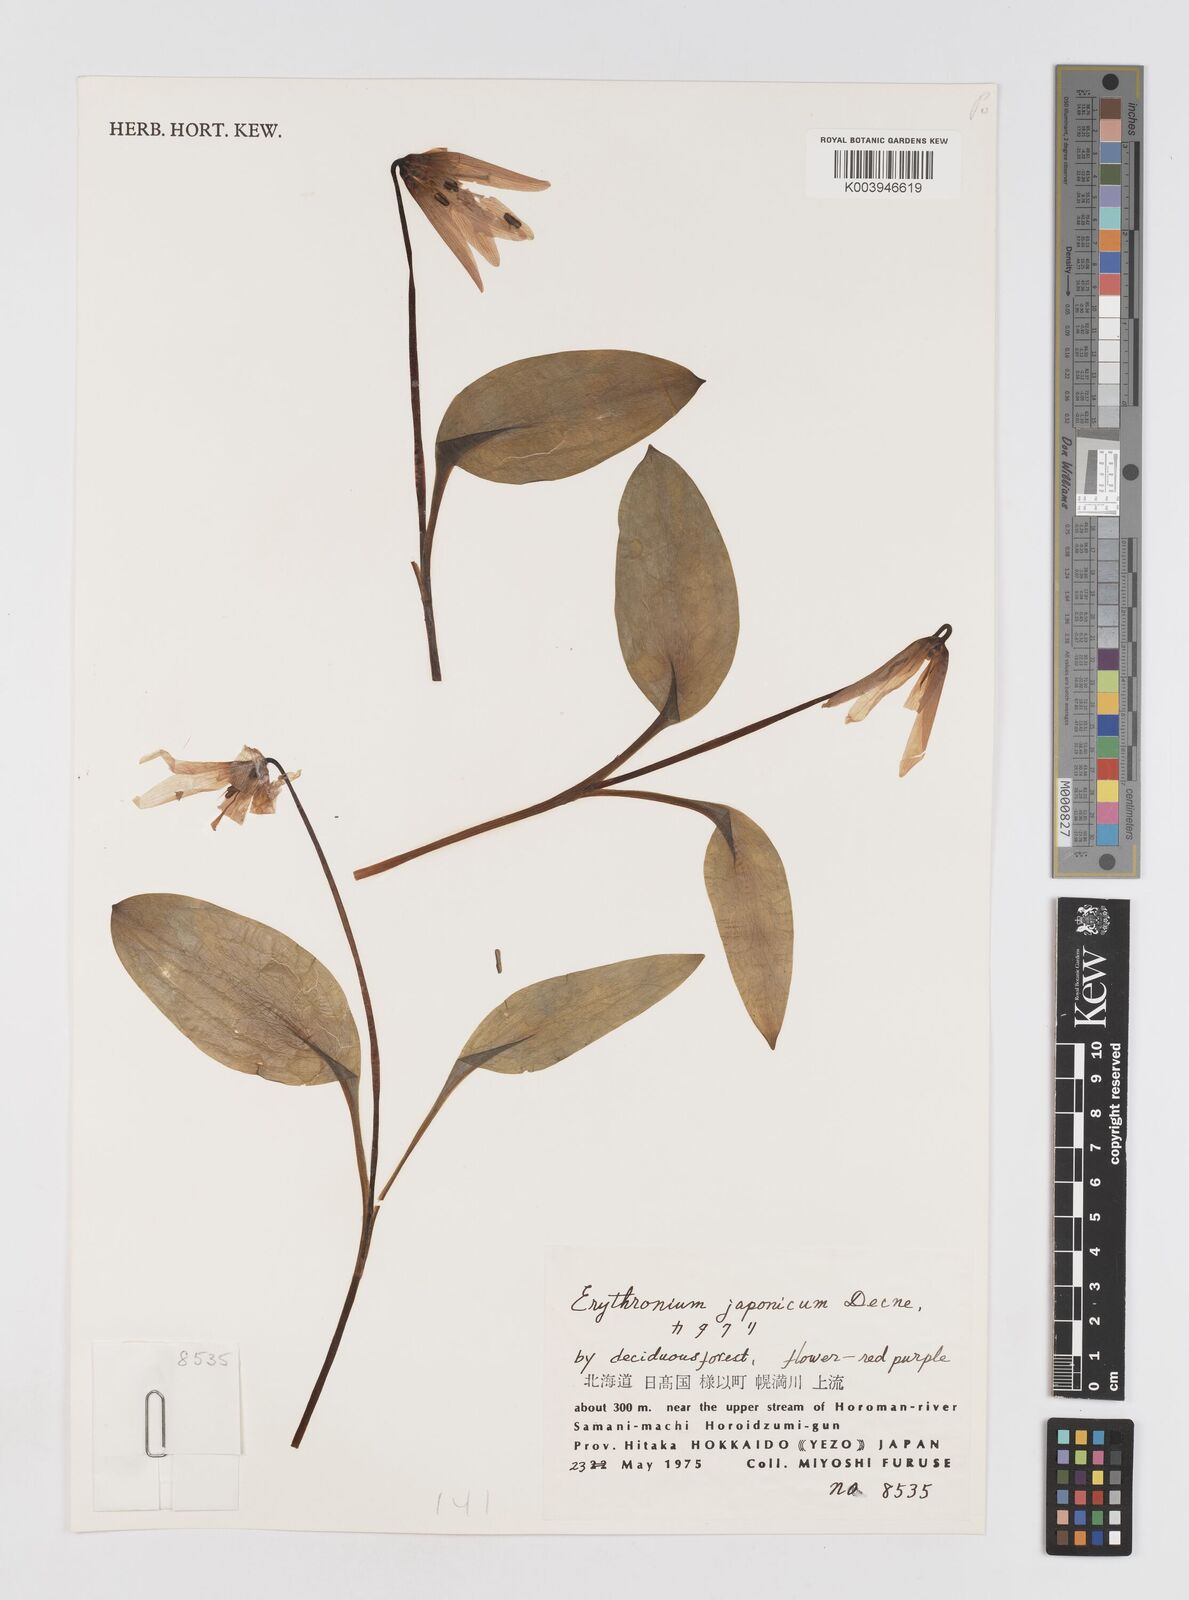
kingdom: Plantae
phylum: Tracheophyta
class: Liliopsida
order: Liliales
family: Liliaceae
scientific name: Liliaceae
